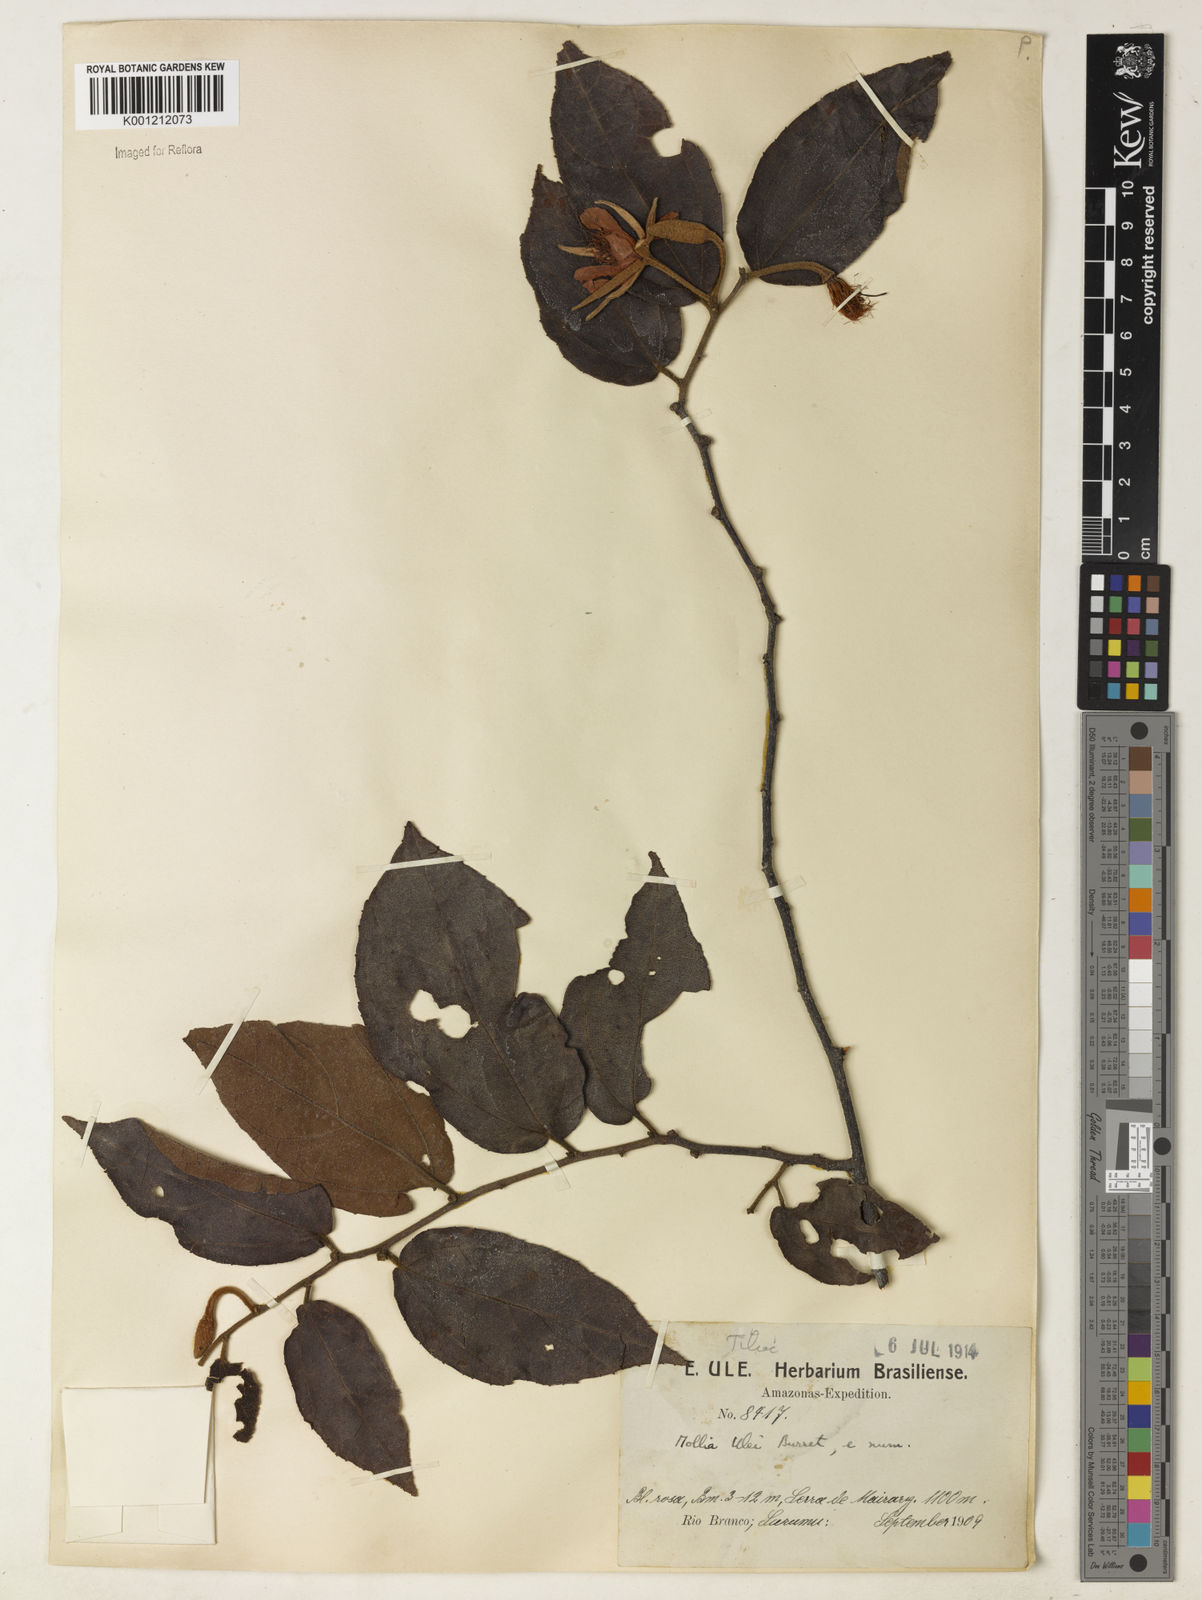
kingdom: Plantae
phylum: Tracheophyta
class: Magnoliopsida
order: Malvales
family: Malvaceae
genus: Mollia
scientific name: Mollia ulei
